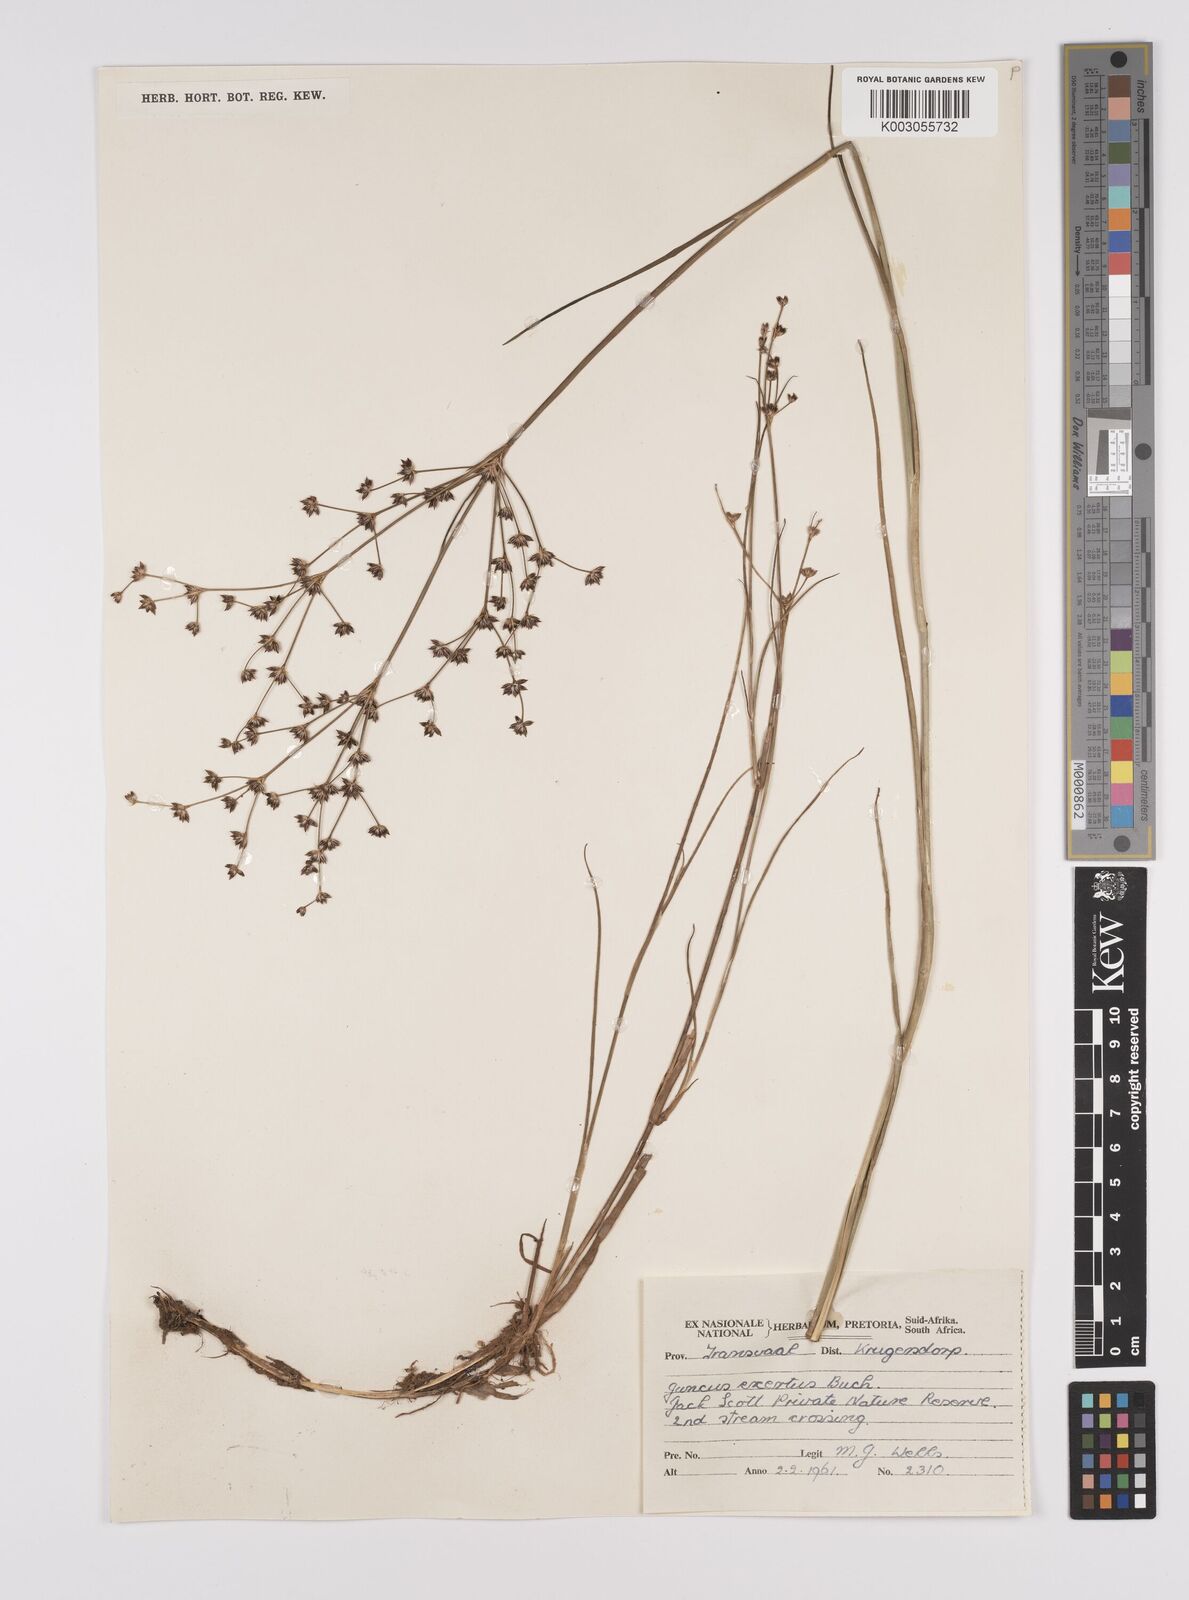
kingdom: Plantae
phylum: Tracheophyta
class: Liliopsida
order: Poales
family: Juncaceae
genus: Juncus
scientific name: Juncus exsertus
